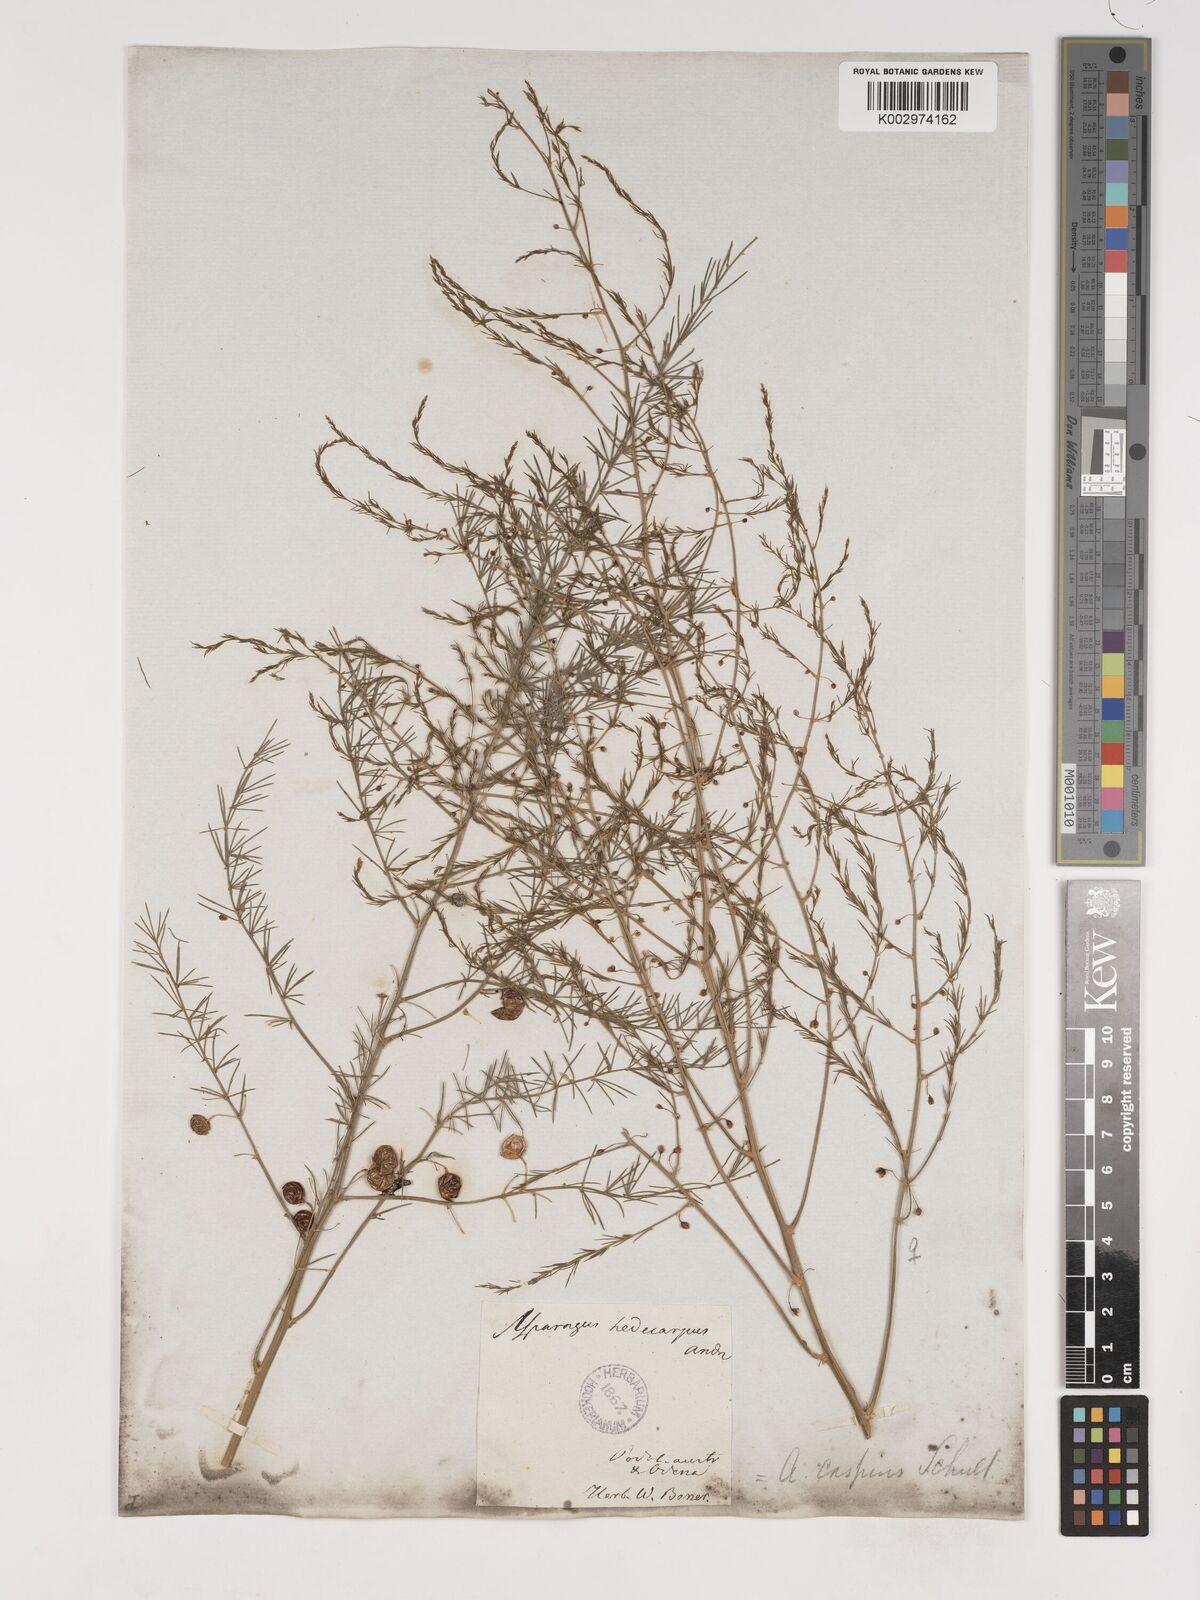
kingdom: Plantae
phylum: Tracheophyta
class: Liliopsida
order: Asparagales
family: Asparagaceae
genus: Asparagus
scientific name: Asparagus officinalis
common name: Garden asparagus
